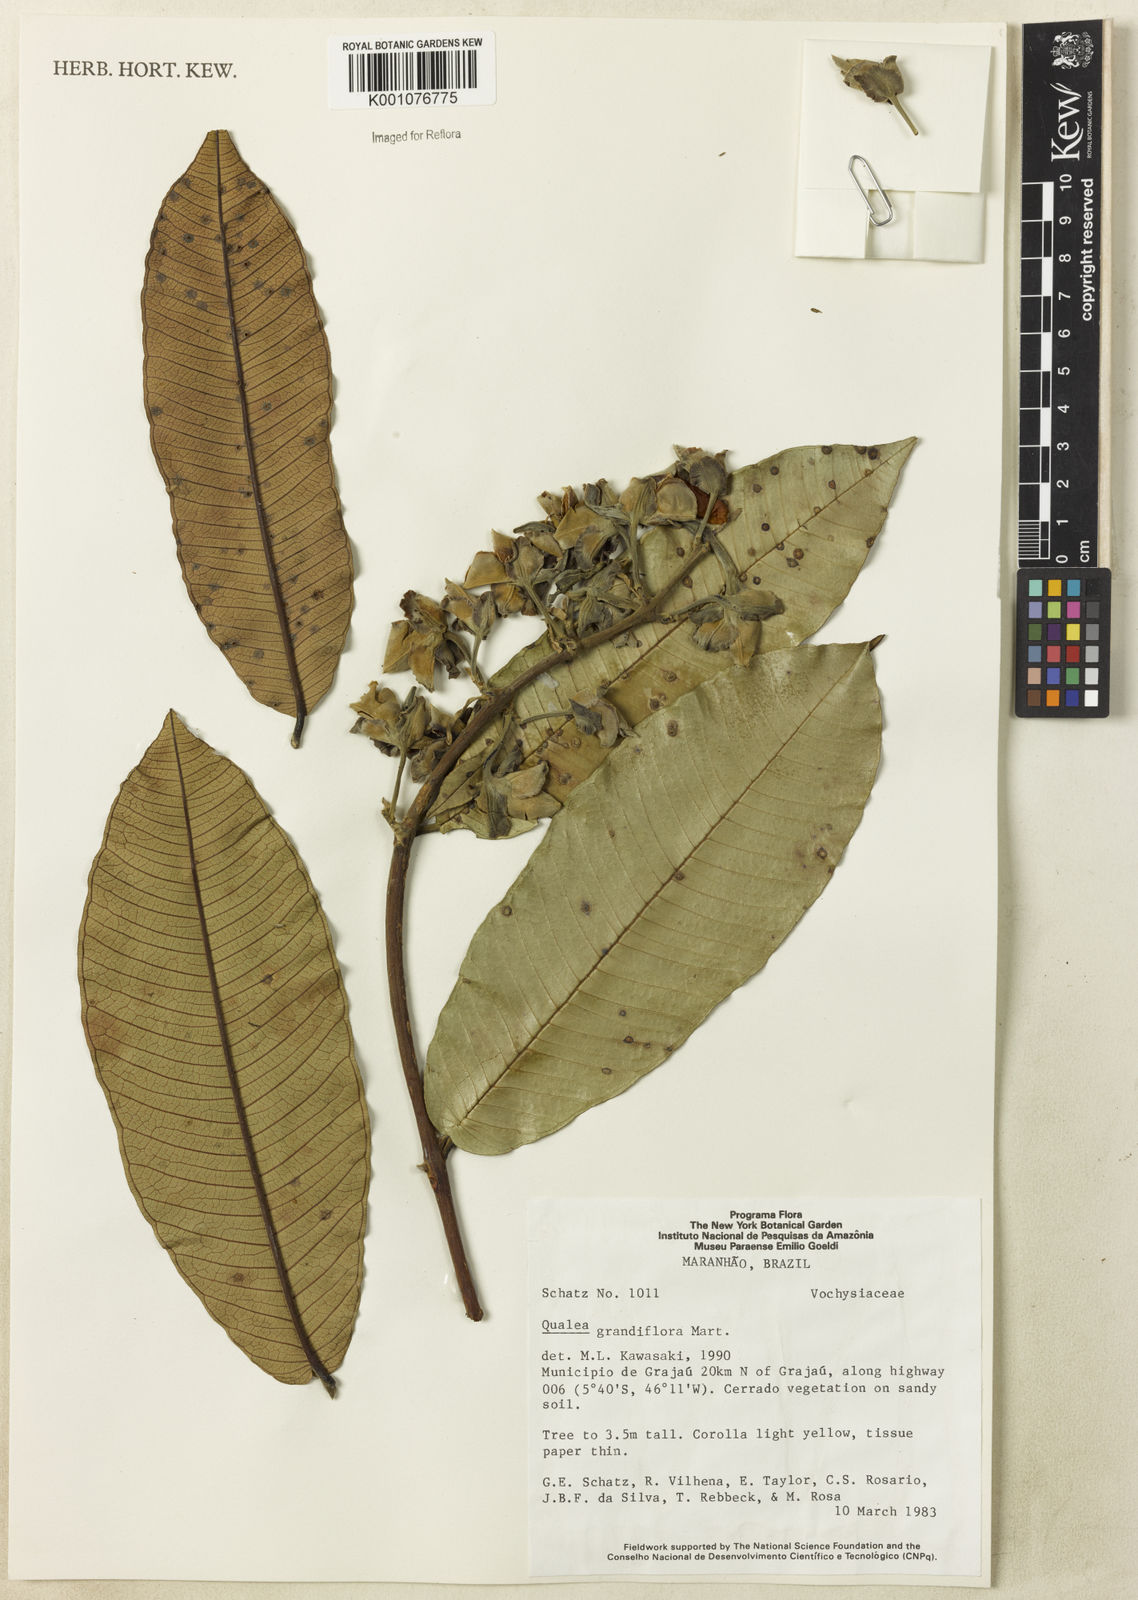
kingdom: Plantae
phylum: Tracheophyta
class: Magnoliopsida
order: Myrtales
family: Vochysiaceae
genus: Qualea
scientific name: Qualea grandiflora
